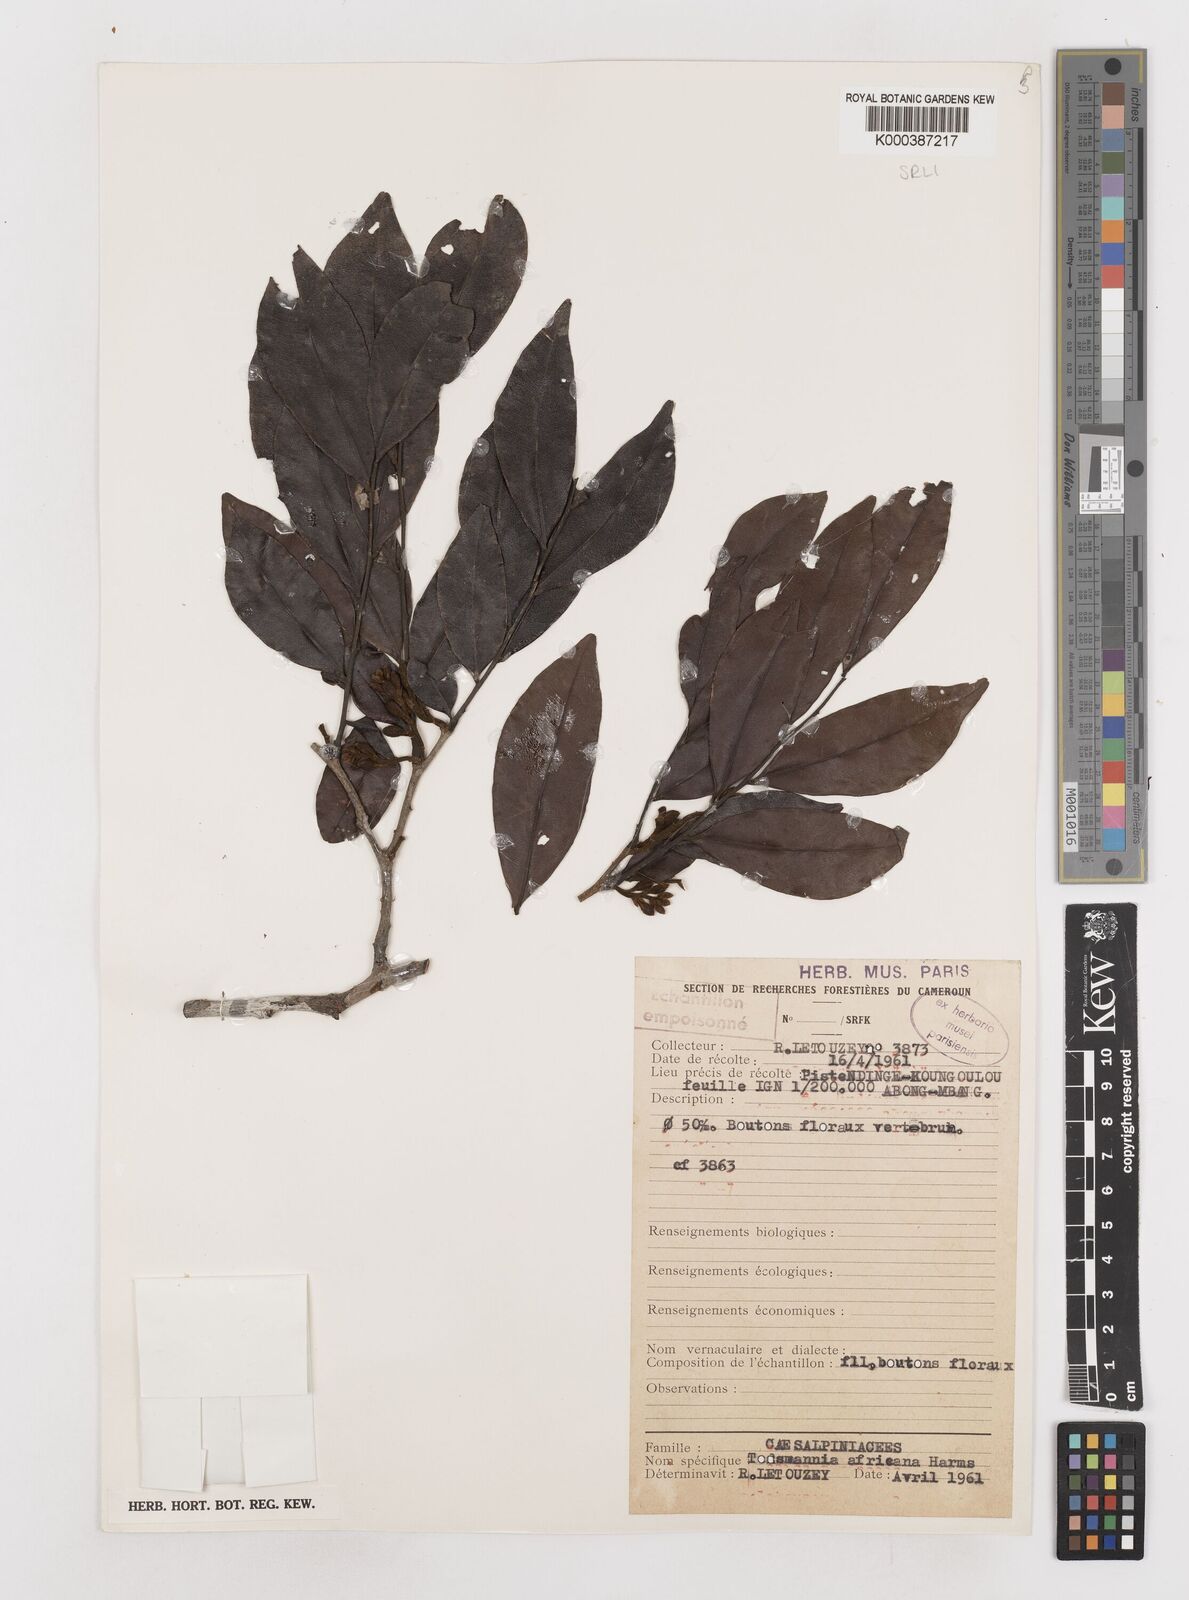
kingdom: Plantae
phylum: Tracheophyta
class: Magnoliopsida
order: Fabales
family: Fabaceae
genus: Tessmannia
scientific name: Tessmannia africana
